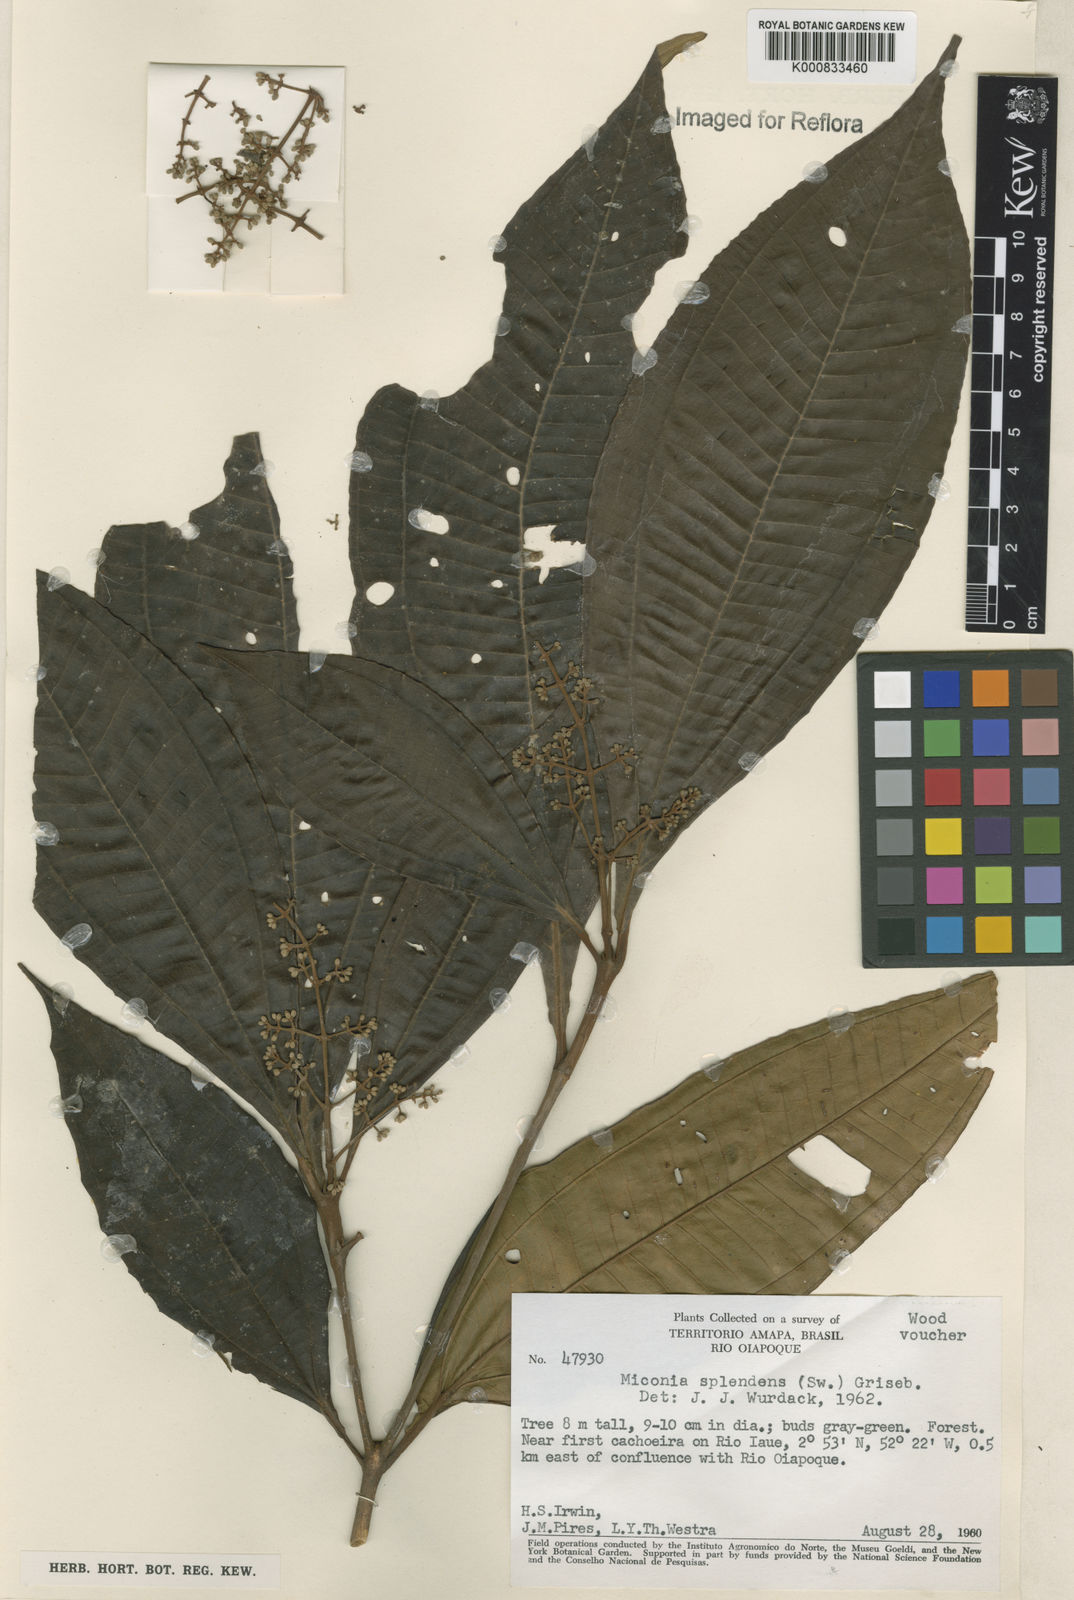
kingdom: Plantae
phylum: Tracheophyta
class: Magnoliopsida
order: Myrtales
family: Melastomataceae
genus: Miconia
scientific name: Miconia splendens
